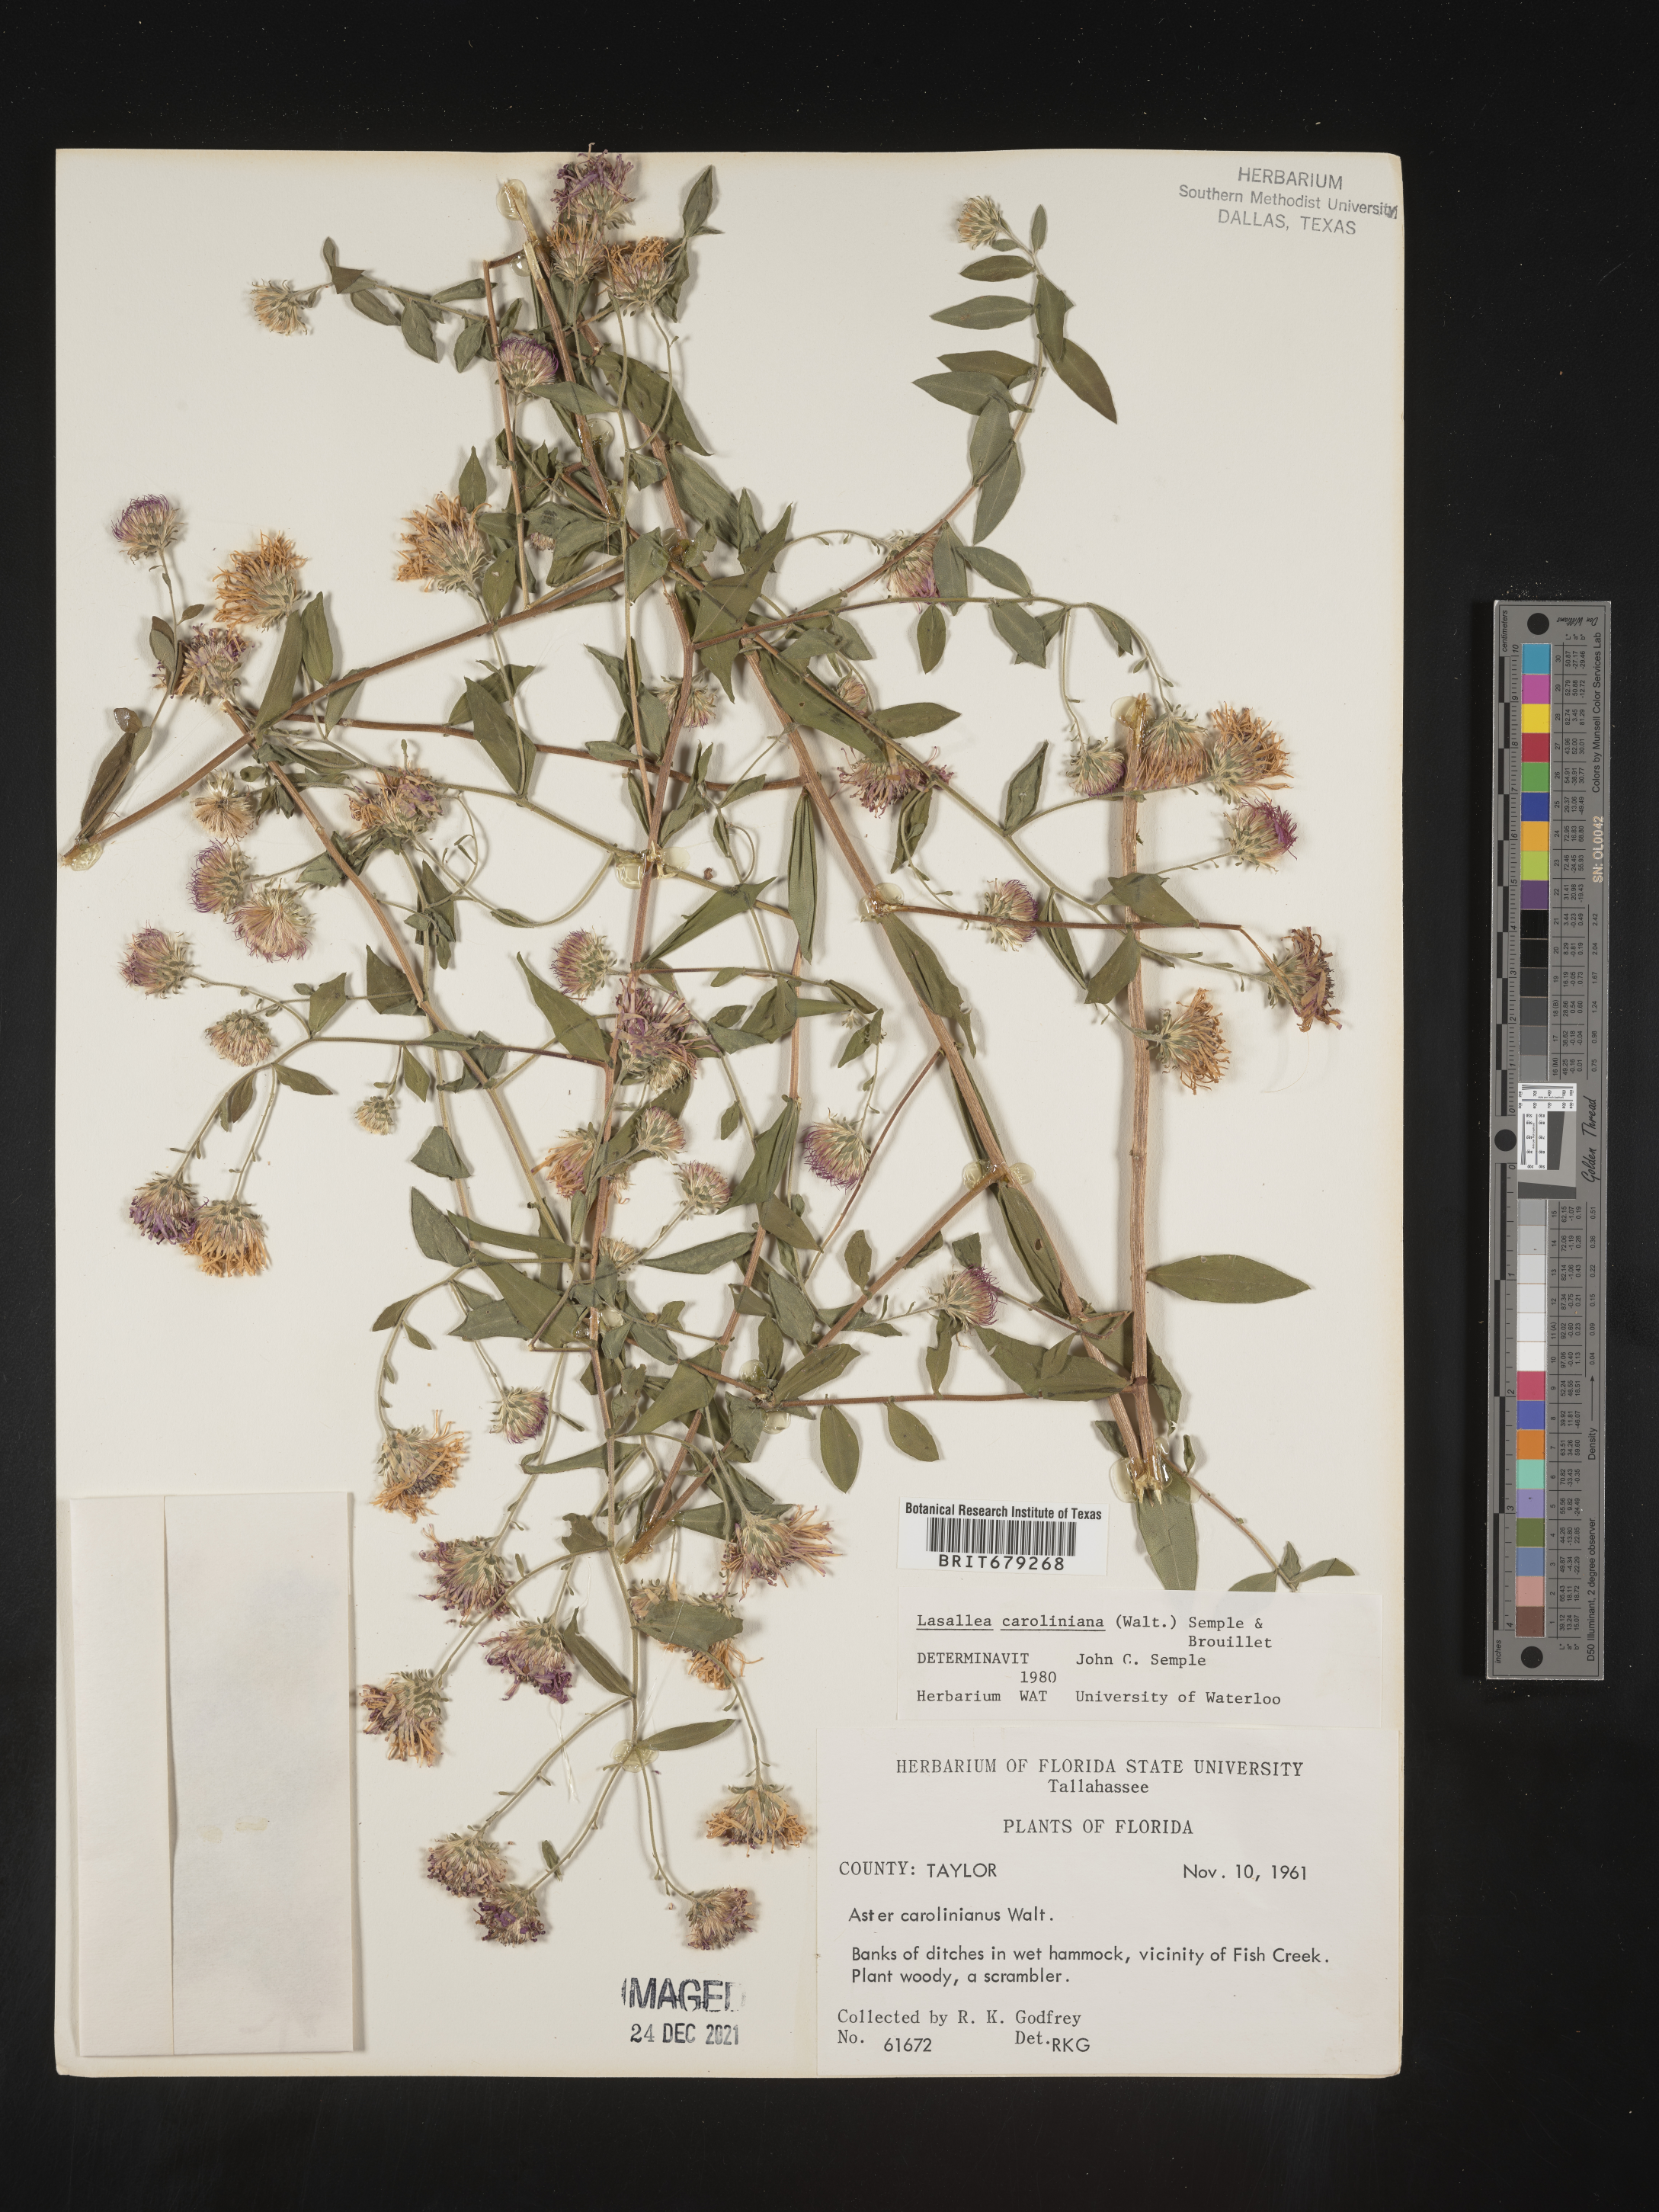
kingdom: Plantae
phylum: Tracheophyta
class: Magnoliopsida
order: Asterales
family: Asteraceae
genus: Ampelaster
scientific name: Ampelaster
